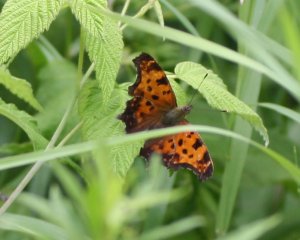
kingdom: Animalia
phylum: Arthropoda
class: Insecta
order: Lepidoptera
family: Nymphalidae
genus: Polygonia
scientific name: Polygonia comma
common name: Eastern Comma
